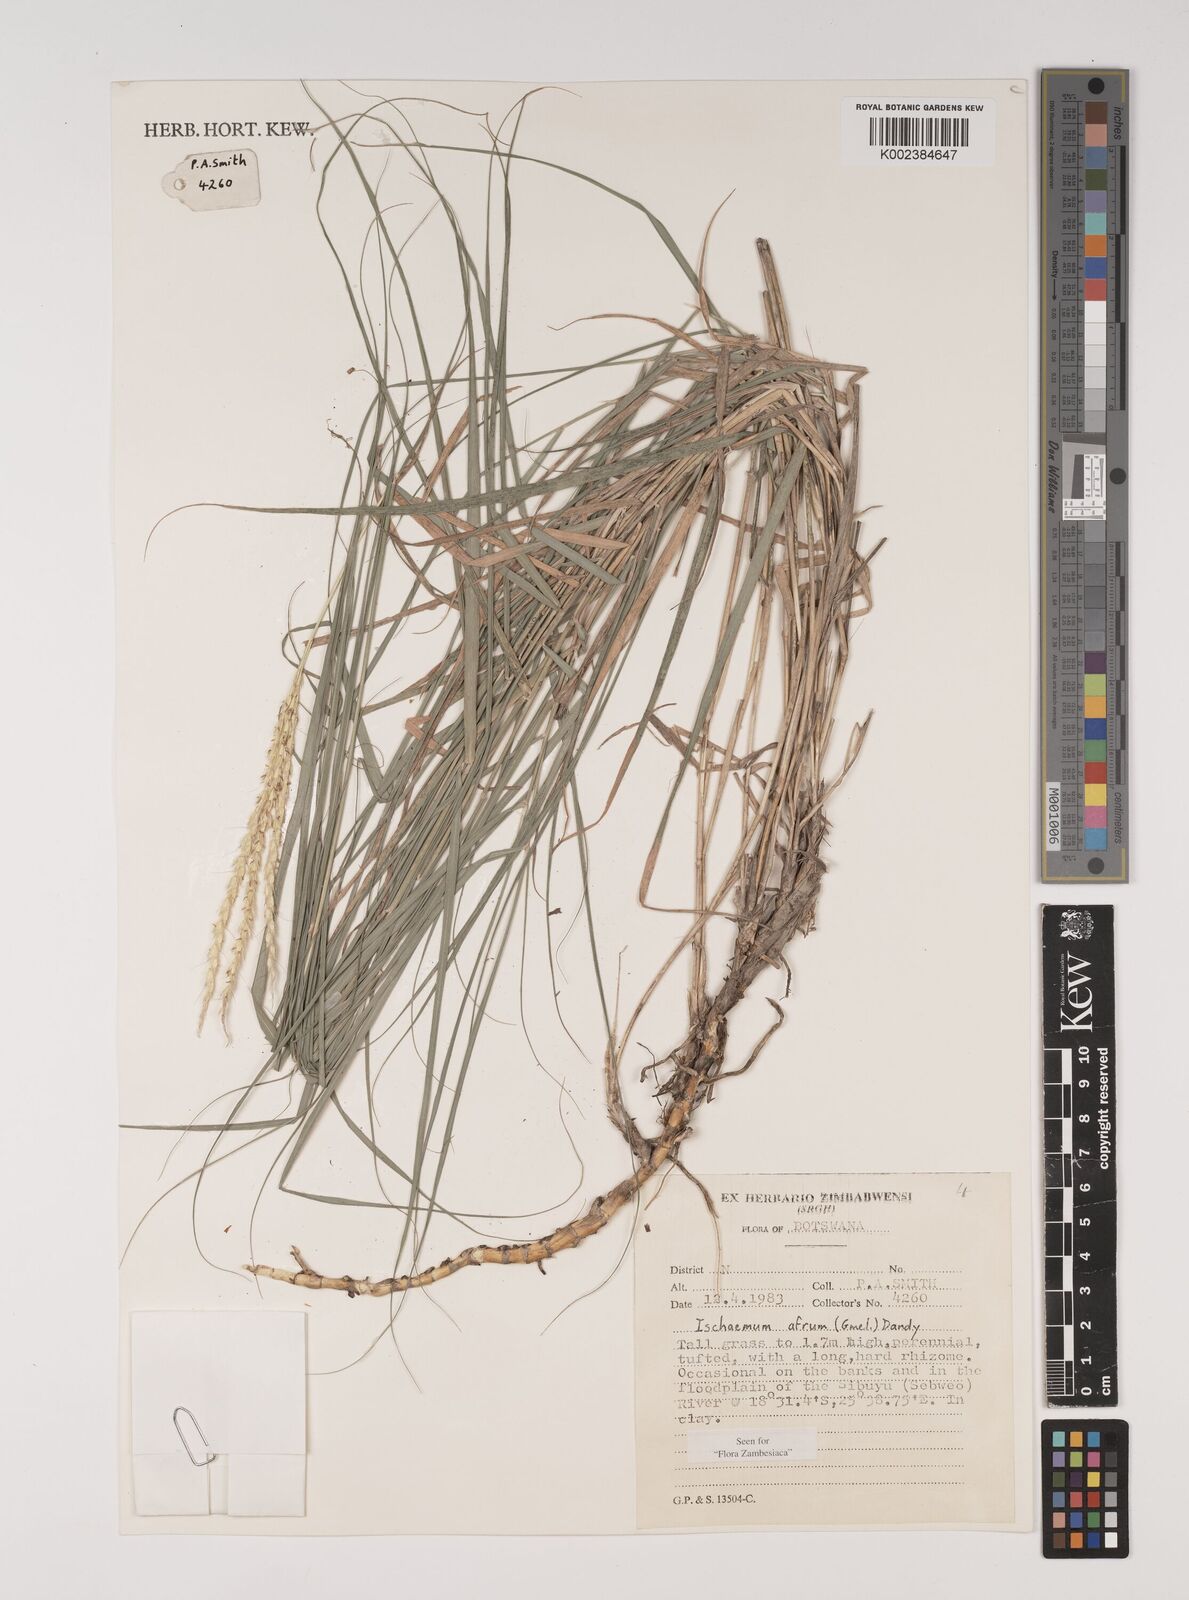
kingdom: Plantae
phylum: Tracheophyta
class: Liliopsida
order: Poales
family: Poaceae
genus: Ischaemum
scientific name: Ischaemum afrum
